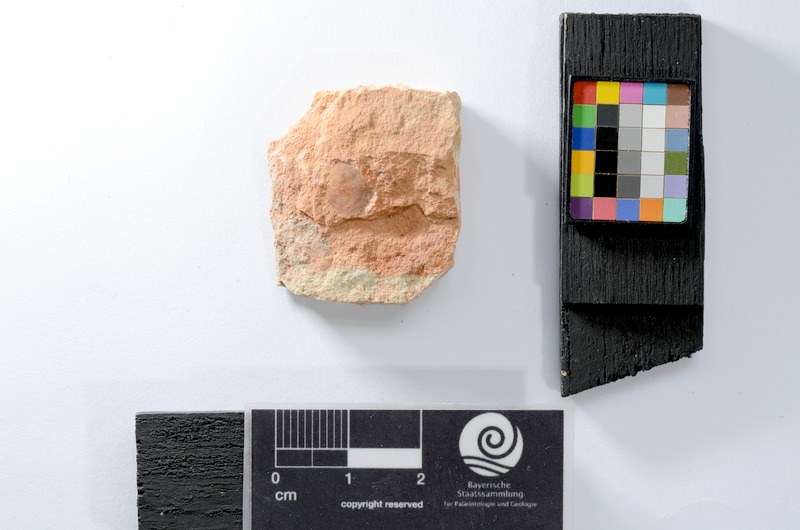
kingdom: Animalia
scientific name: Animalia
